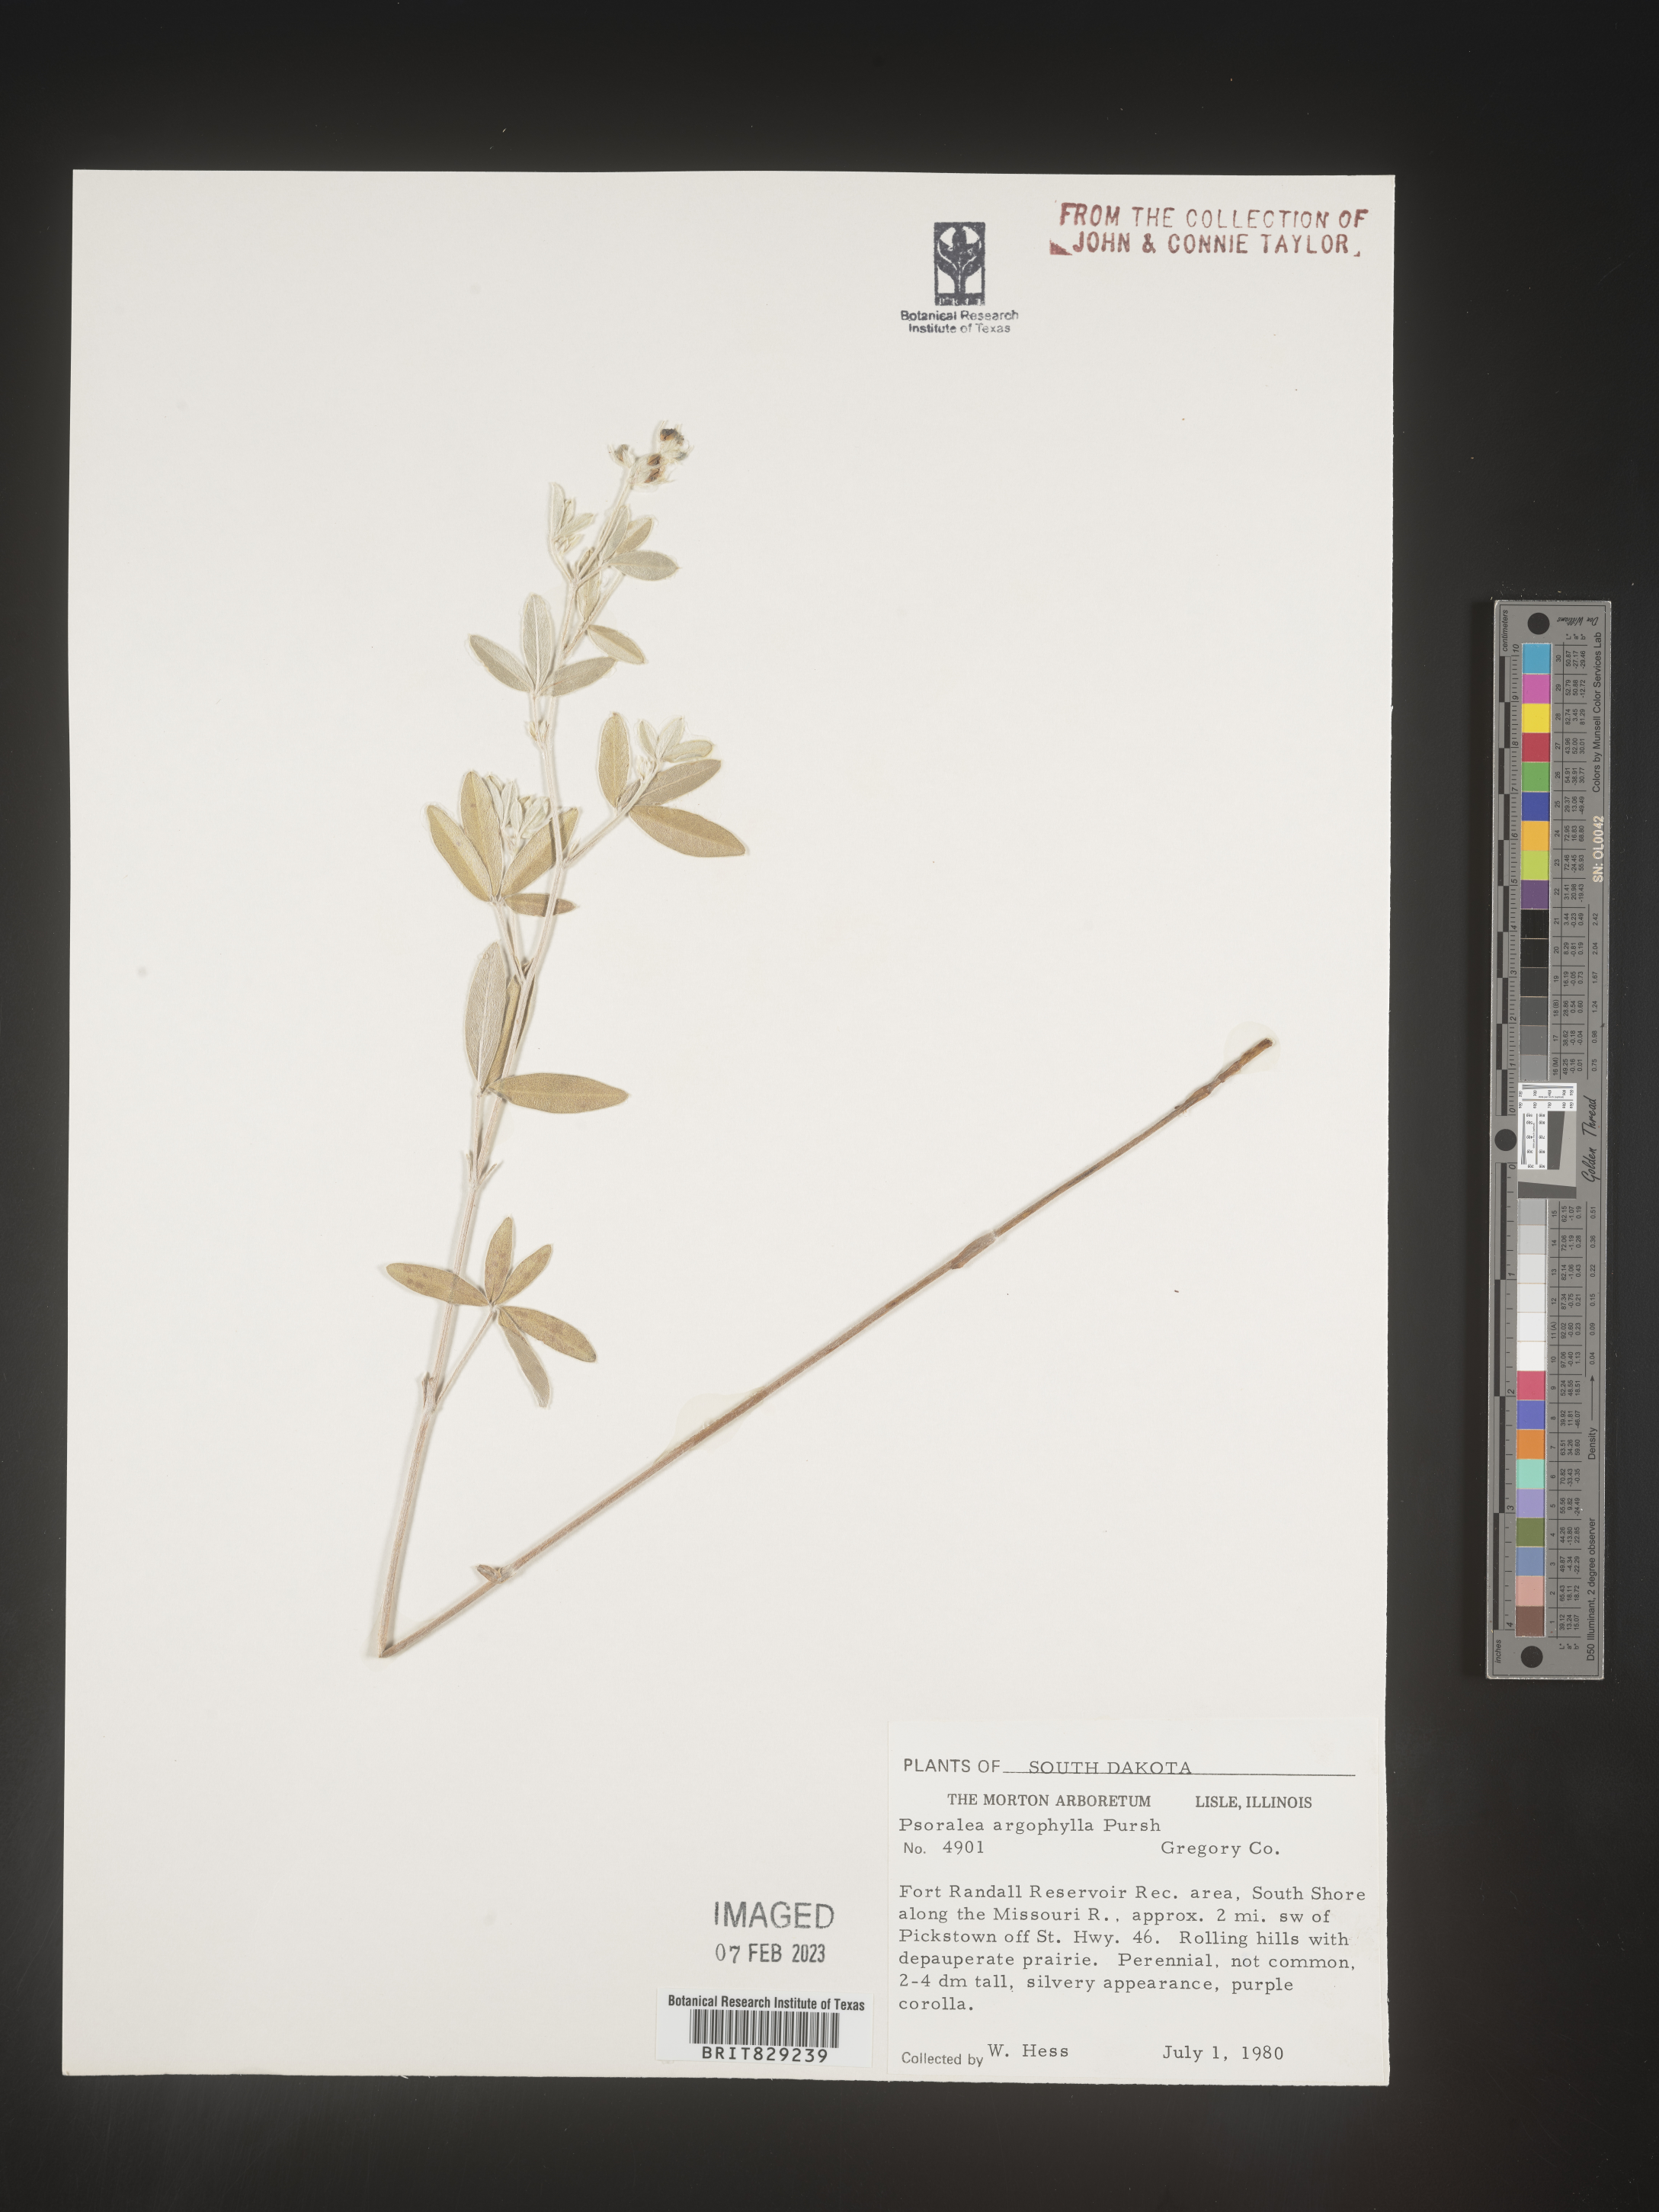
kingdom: Plantae
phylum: Tracheophyta
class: Magnoliopsida
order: Fabales
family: Fabaceae
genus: Pediomelum
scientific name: Pediomelum argophyllum
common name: Silver-leaved indian breadroot
